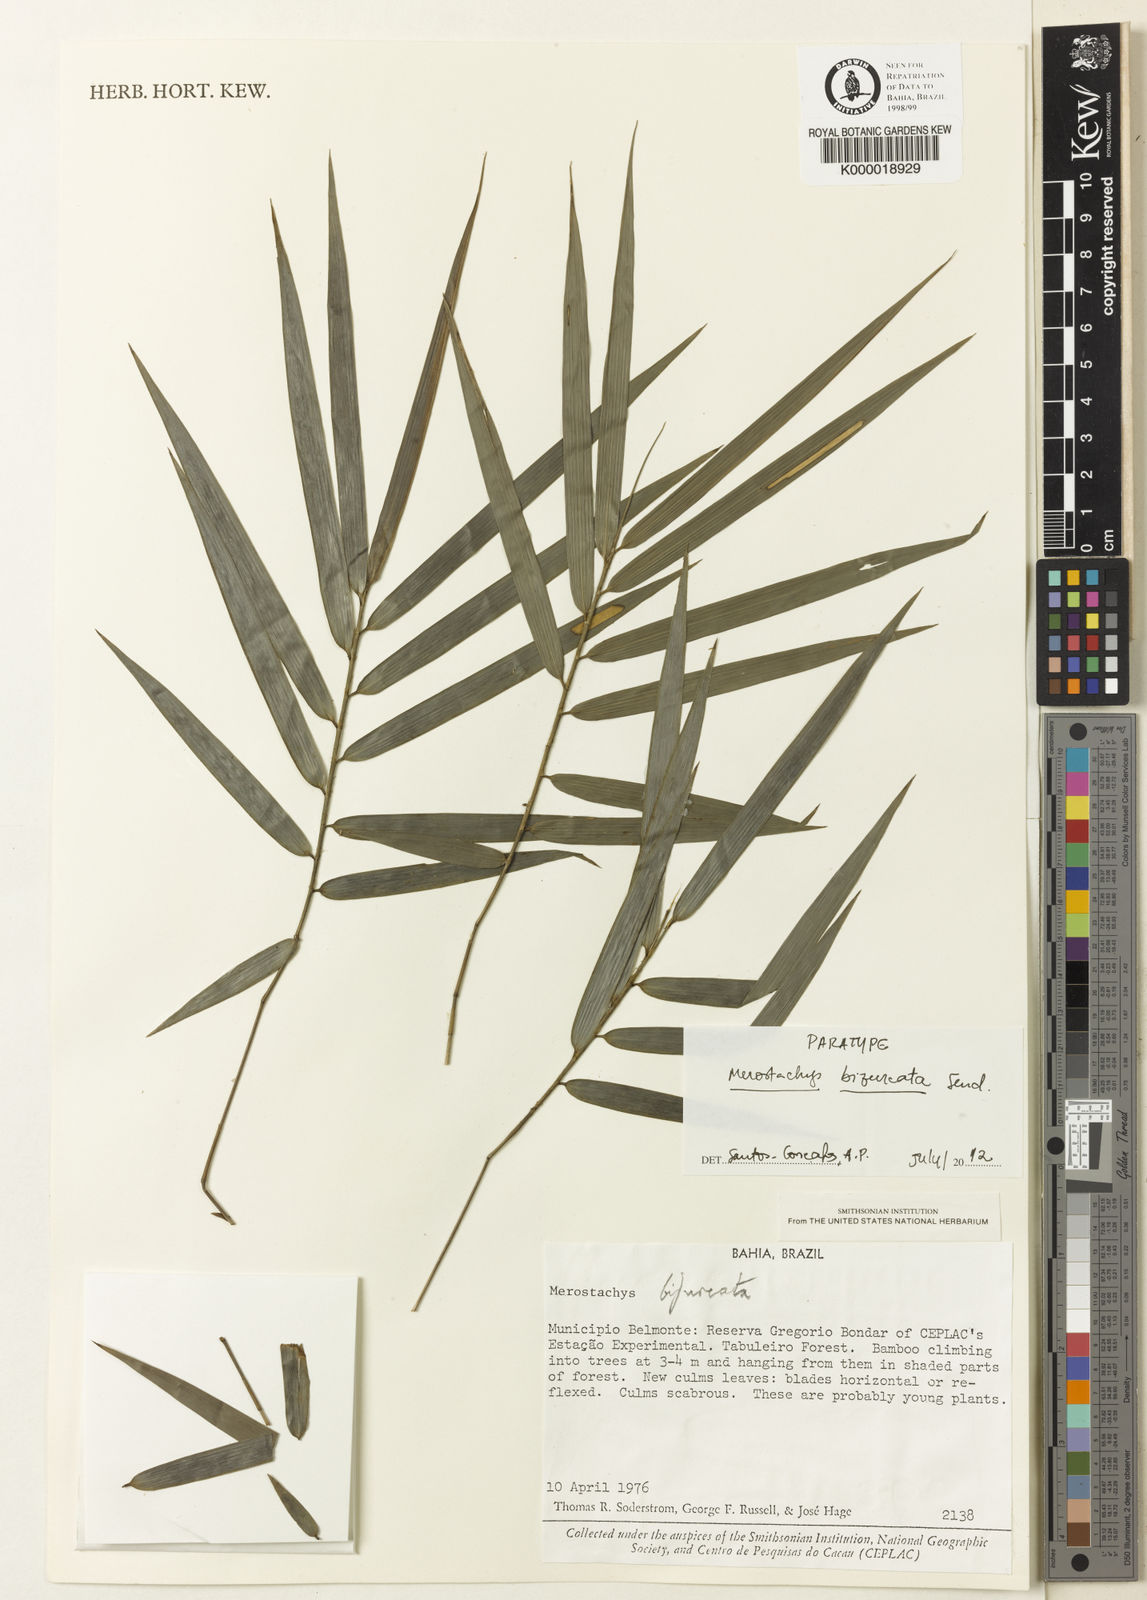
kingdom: Plantae
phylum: Tracheophyta
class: Liliopsida
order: Poales
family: Poaceae
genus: Merostachys
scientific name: Merostachys bifurcata
